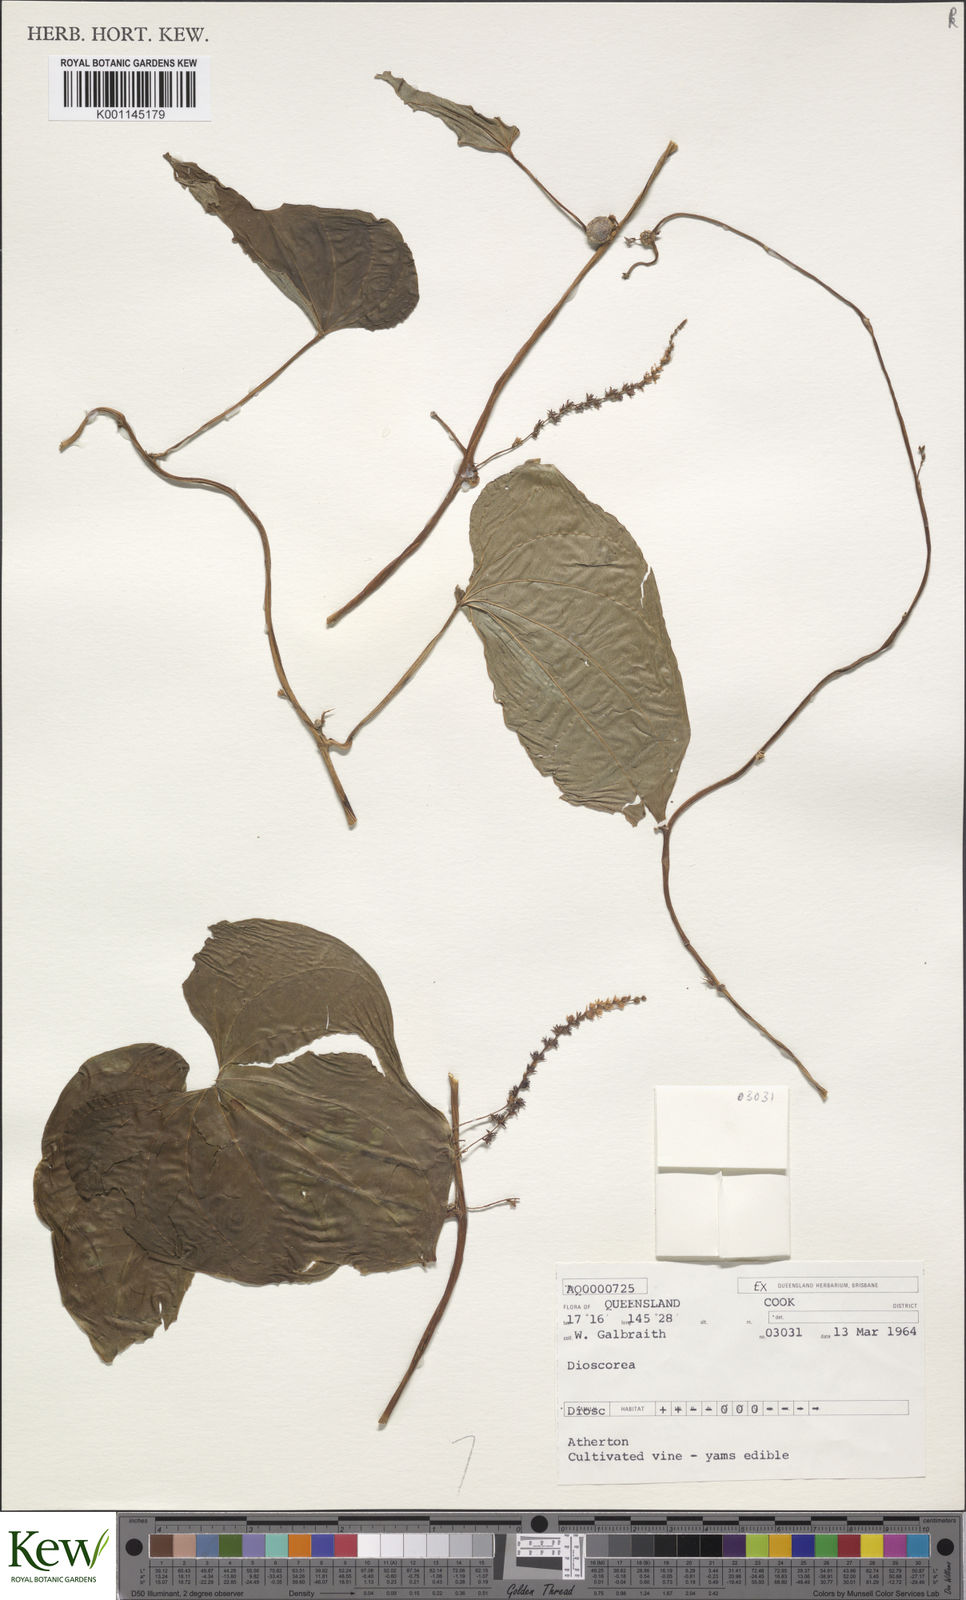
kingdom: Plantae
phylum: Tracheophyta
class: Liliopsida
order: Dioscoreales
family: Dioscoreaceae
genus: Dioscorea
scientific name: Dioscorea
